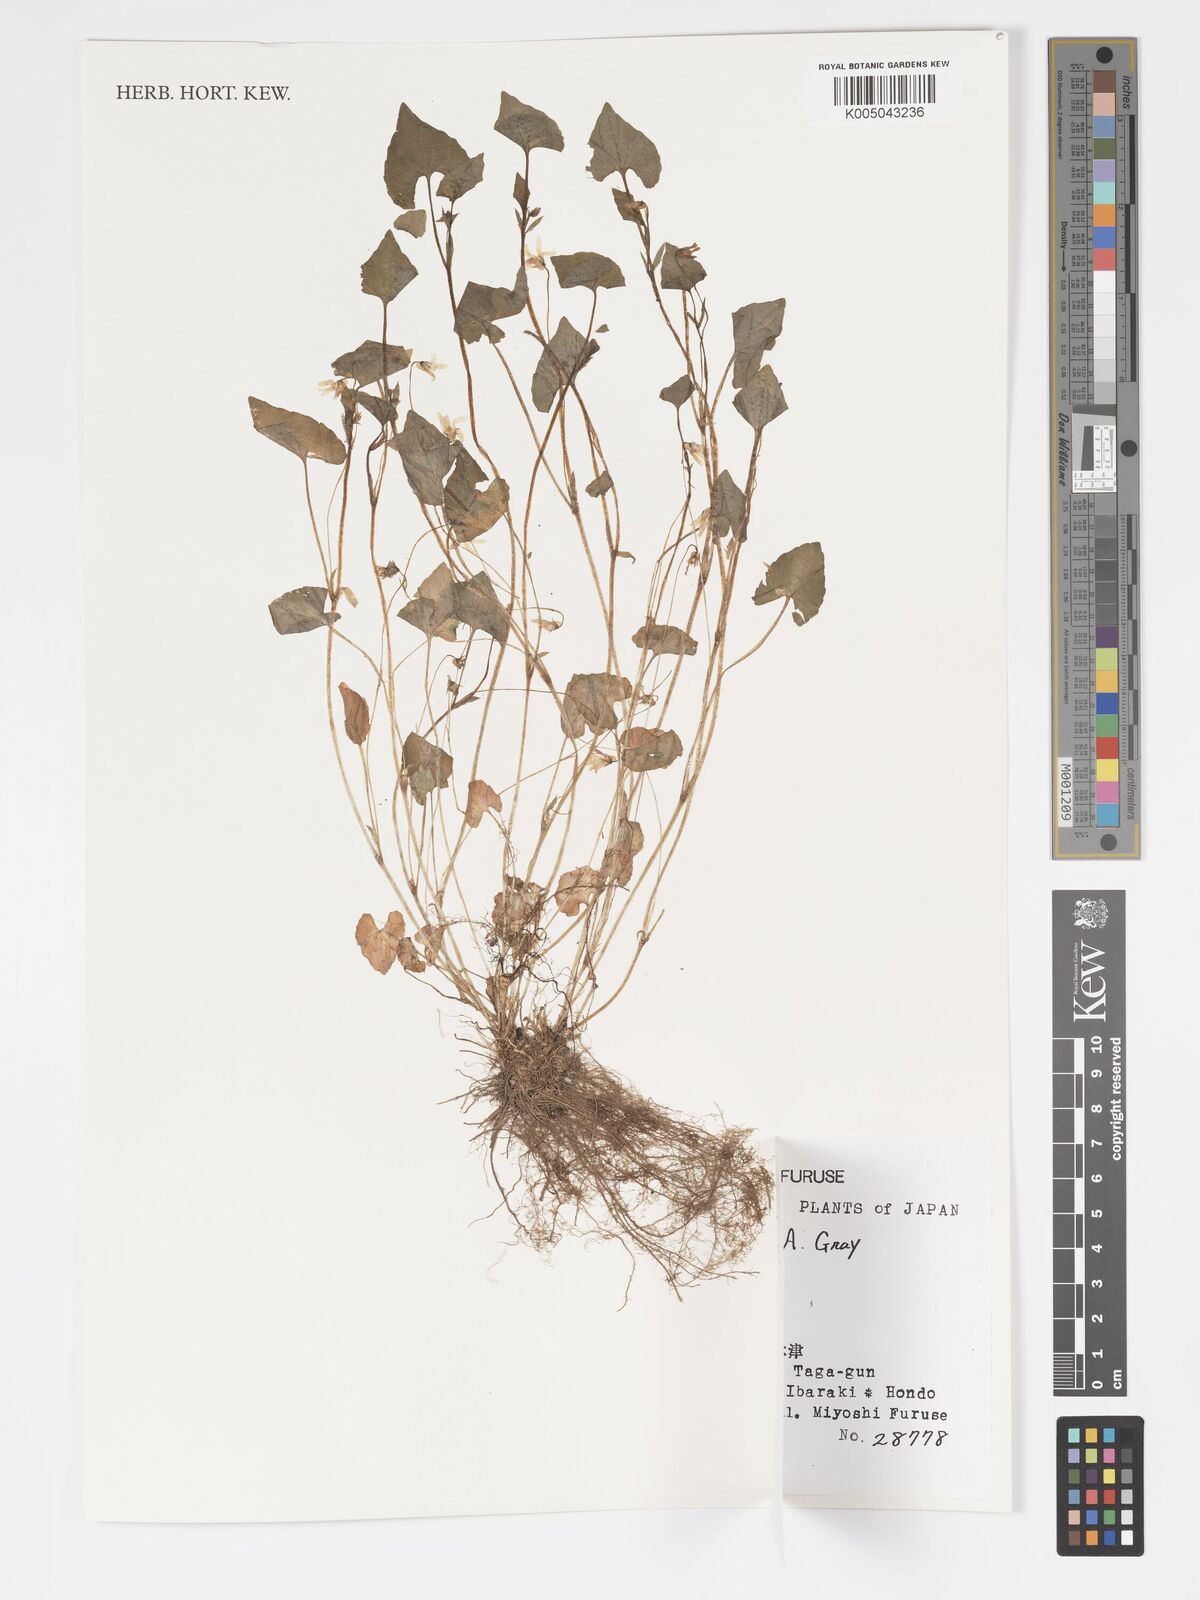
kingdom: Plantae
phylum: Tracheophyta
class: Magnoliopsida
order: Malpighiales
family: Violaceae
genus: Viola
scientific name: Viola hamiltoniana
